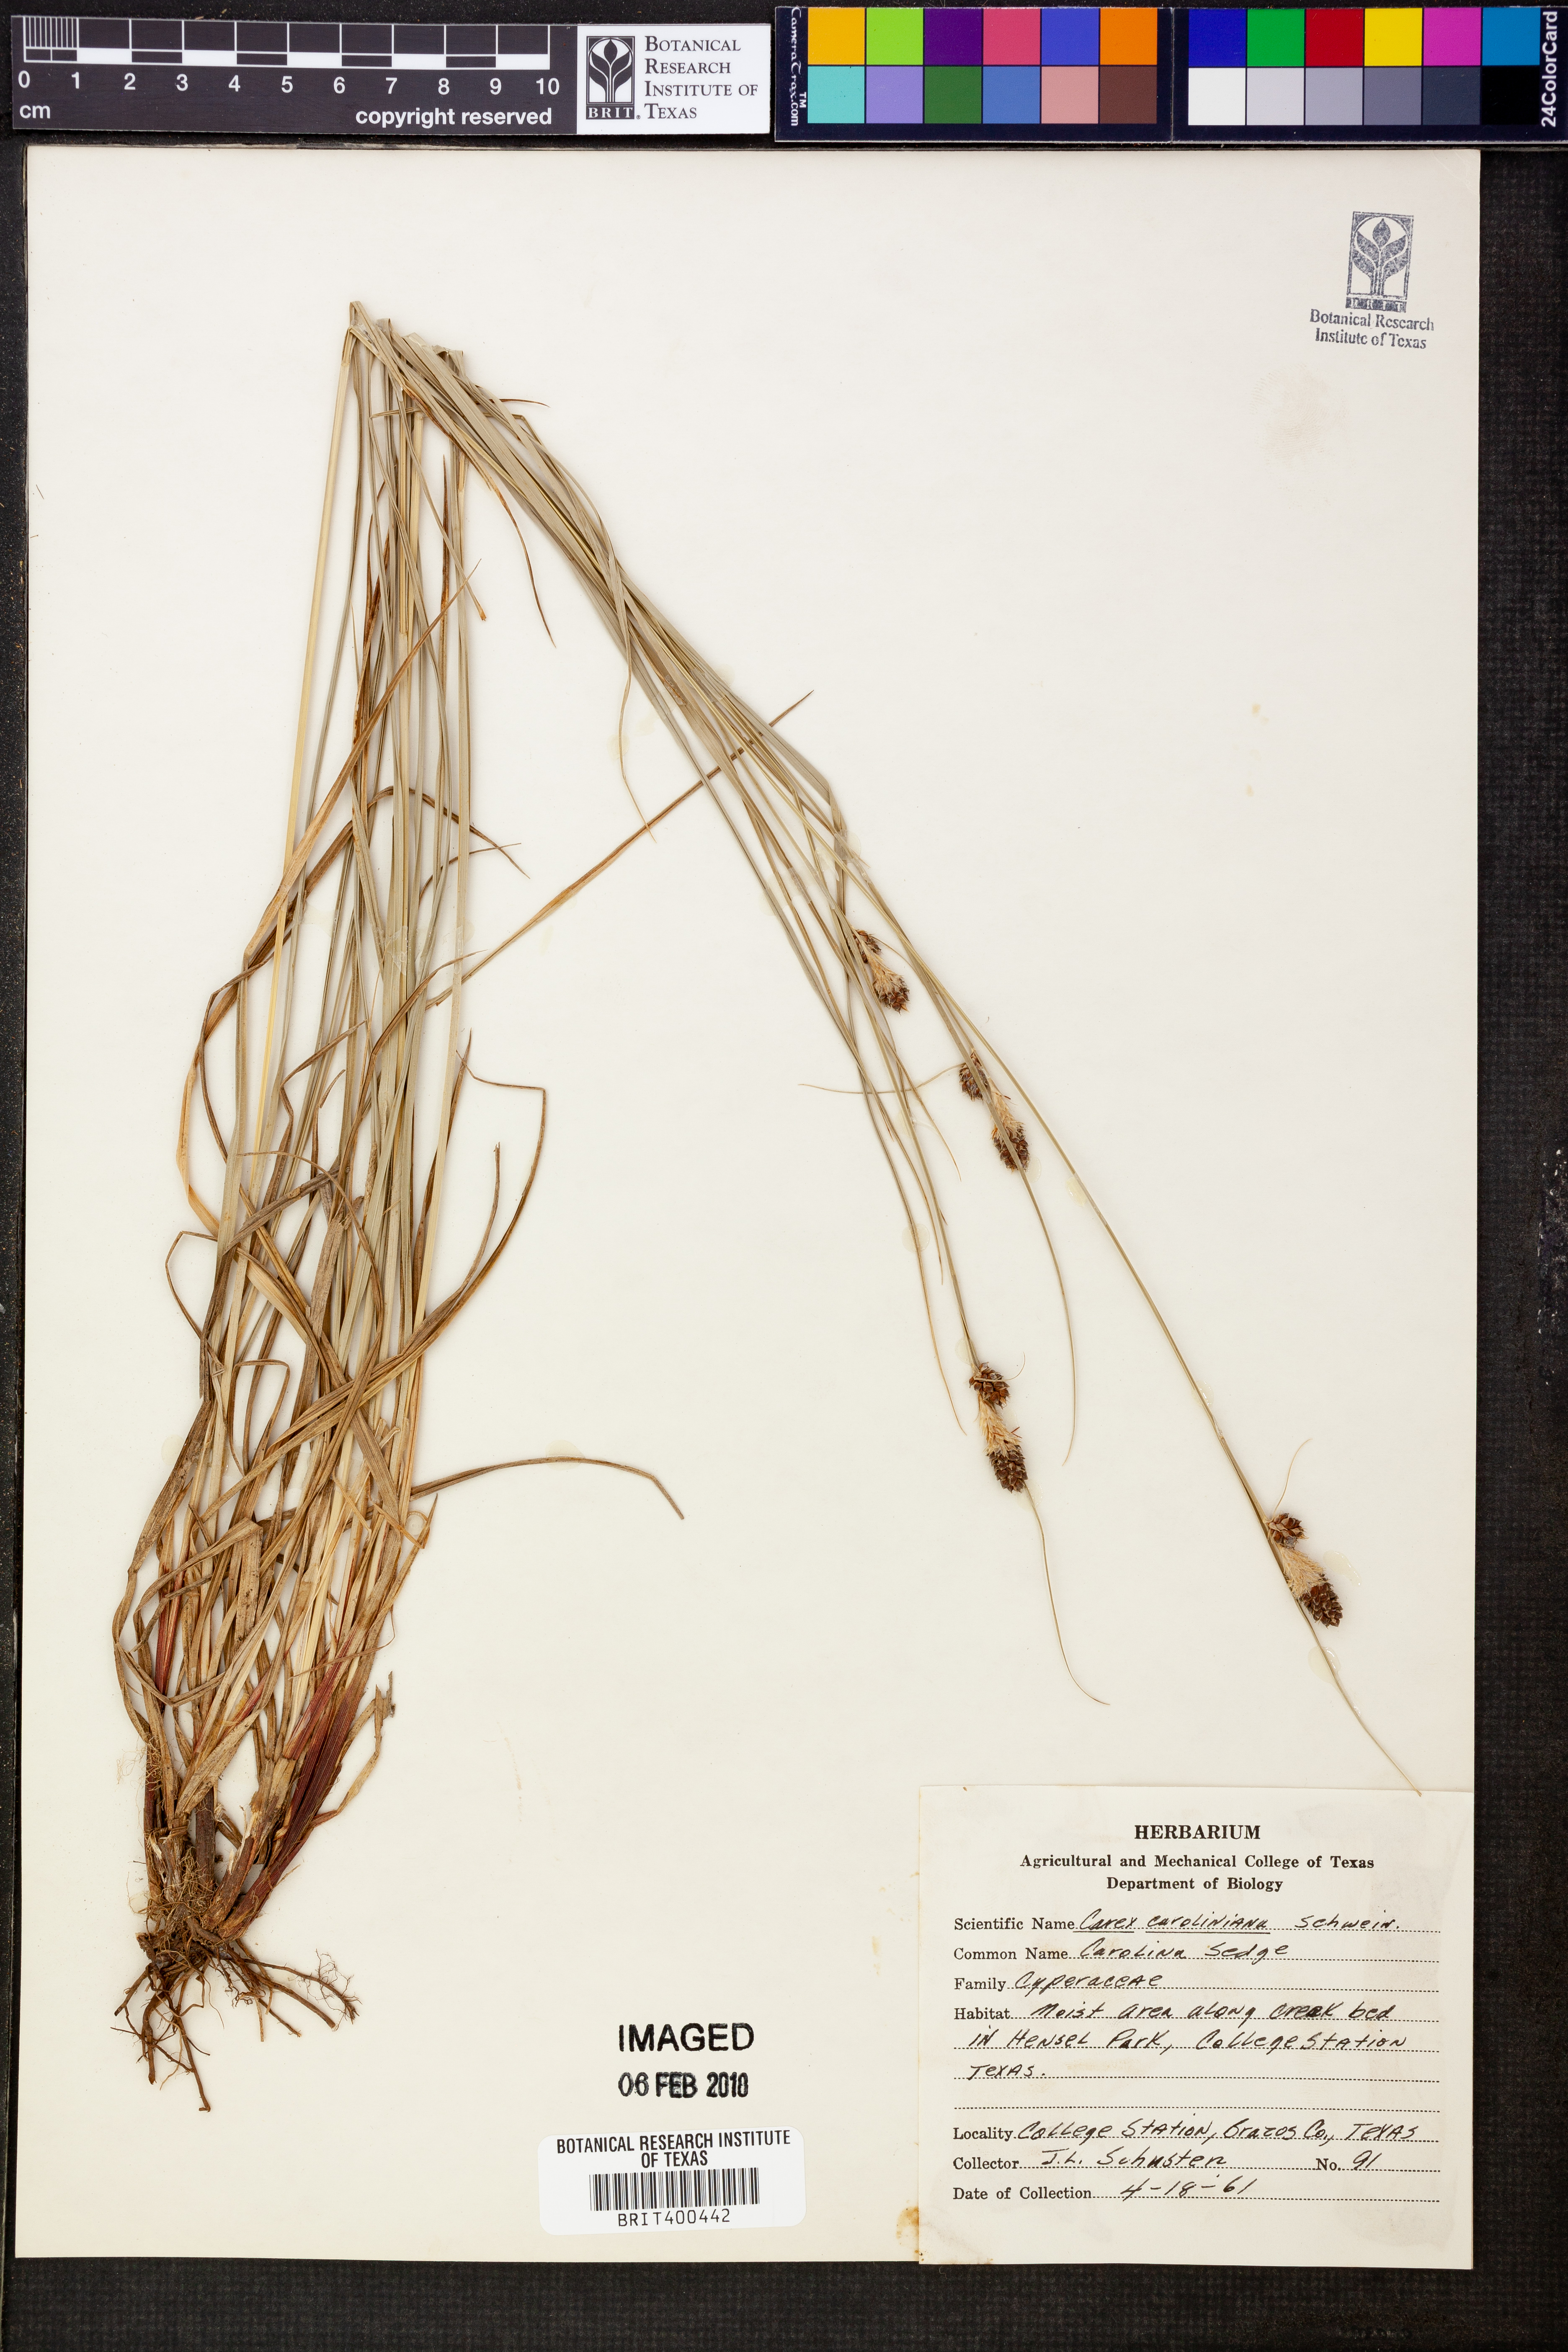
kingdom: Plantae
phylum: Tracheophyta
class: Liliopsida
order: Poales
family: Cyperaceae
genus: Carex
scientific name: Carex caroliniana
